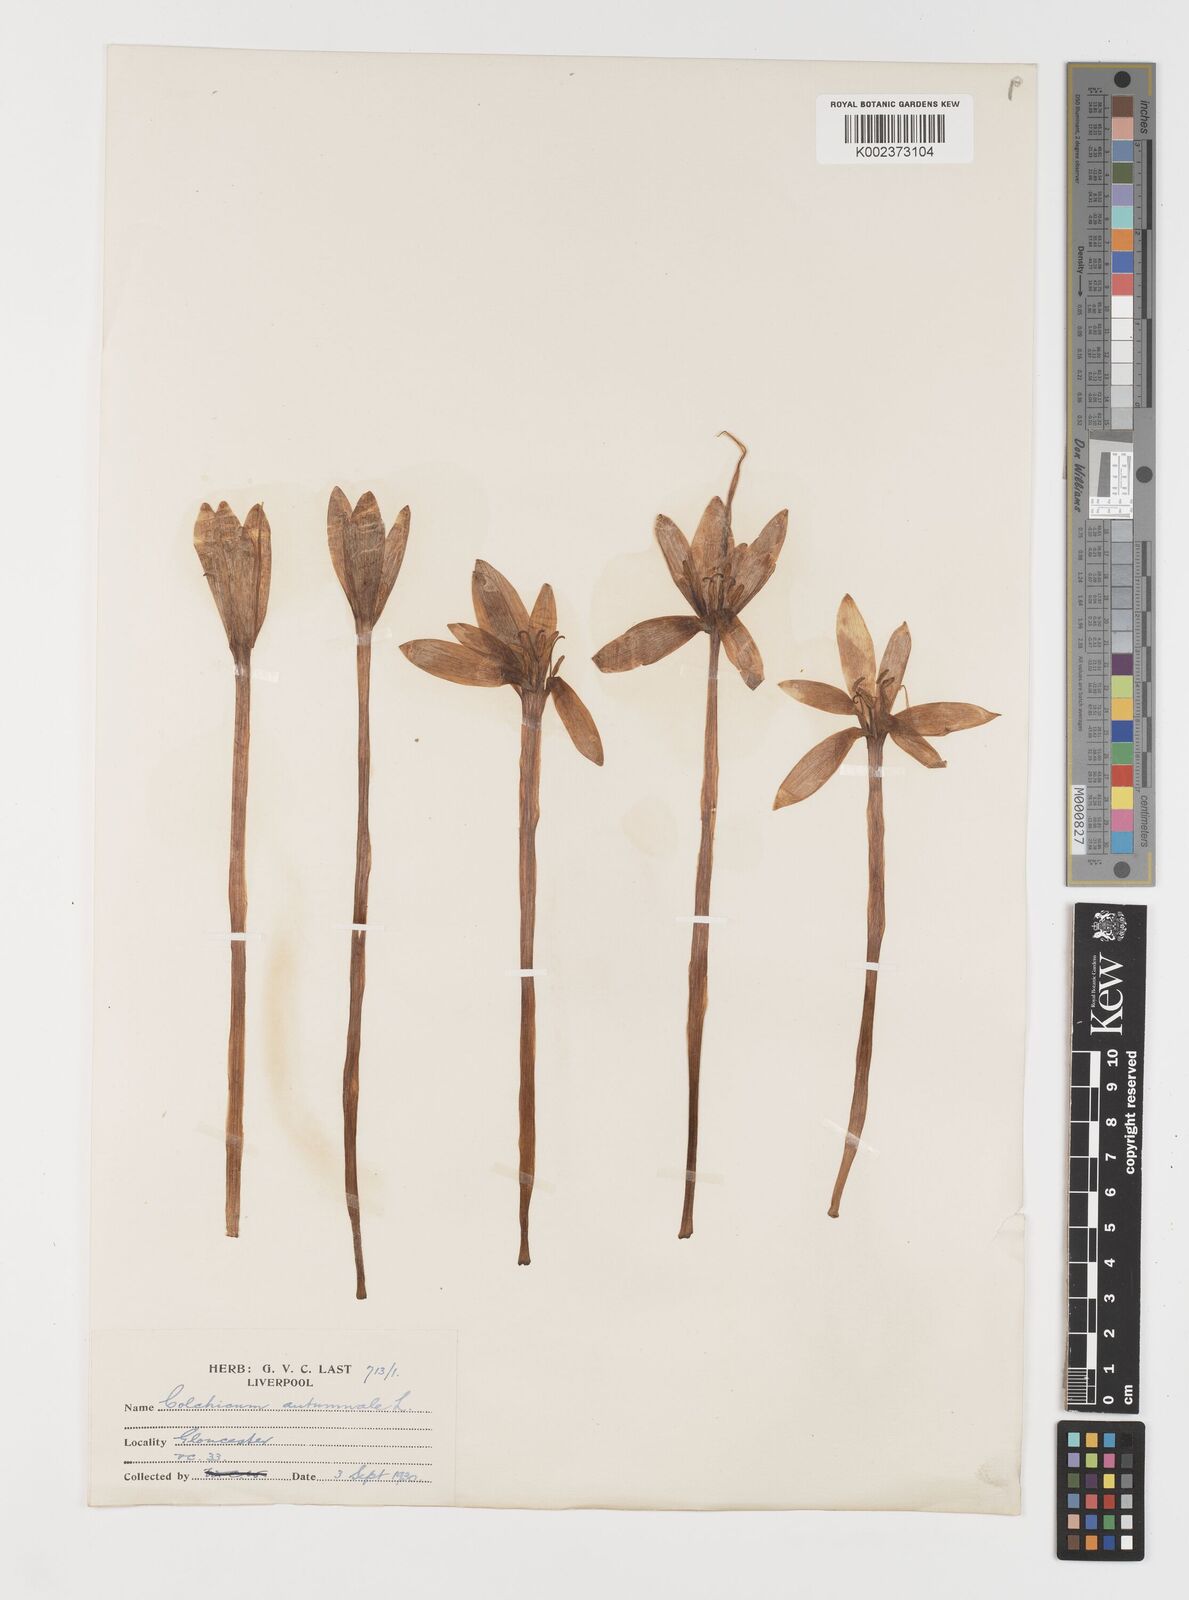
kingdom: Plantae
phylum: Tracheophyta
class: Liliopsida
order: Liliales
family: Colchicaceae
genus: Colchicum
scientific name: Colchicum autumnale
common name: Autumn crocus
